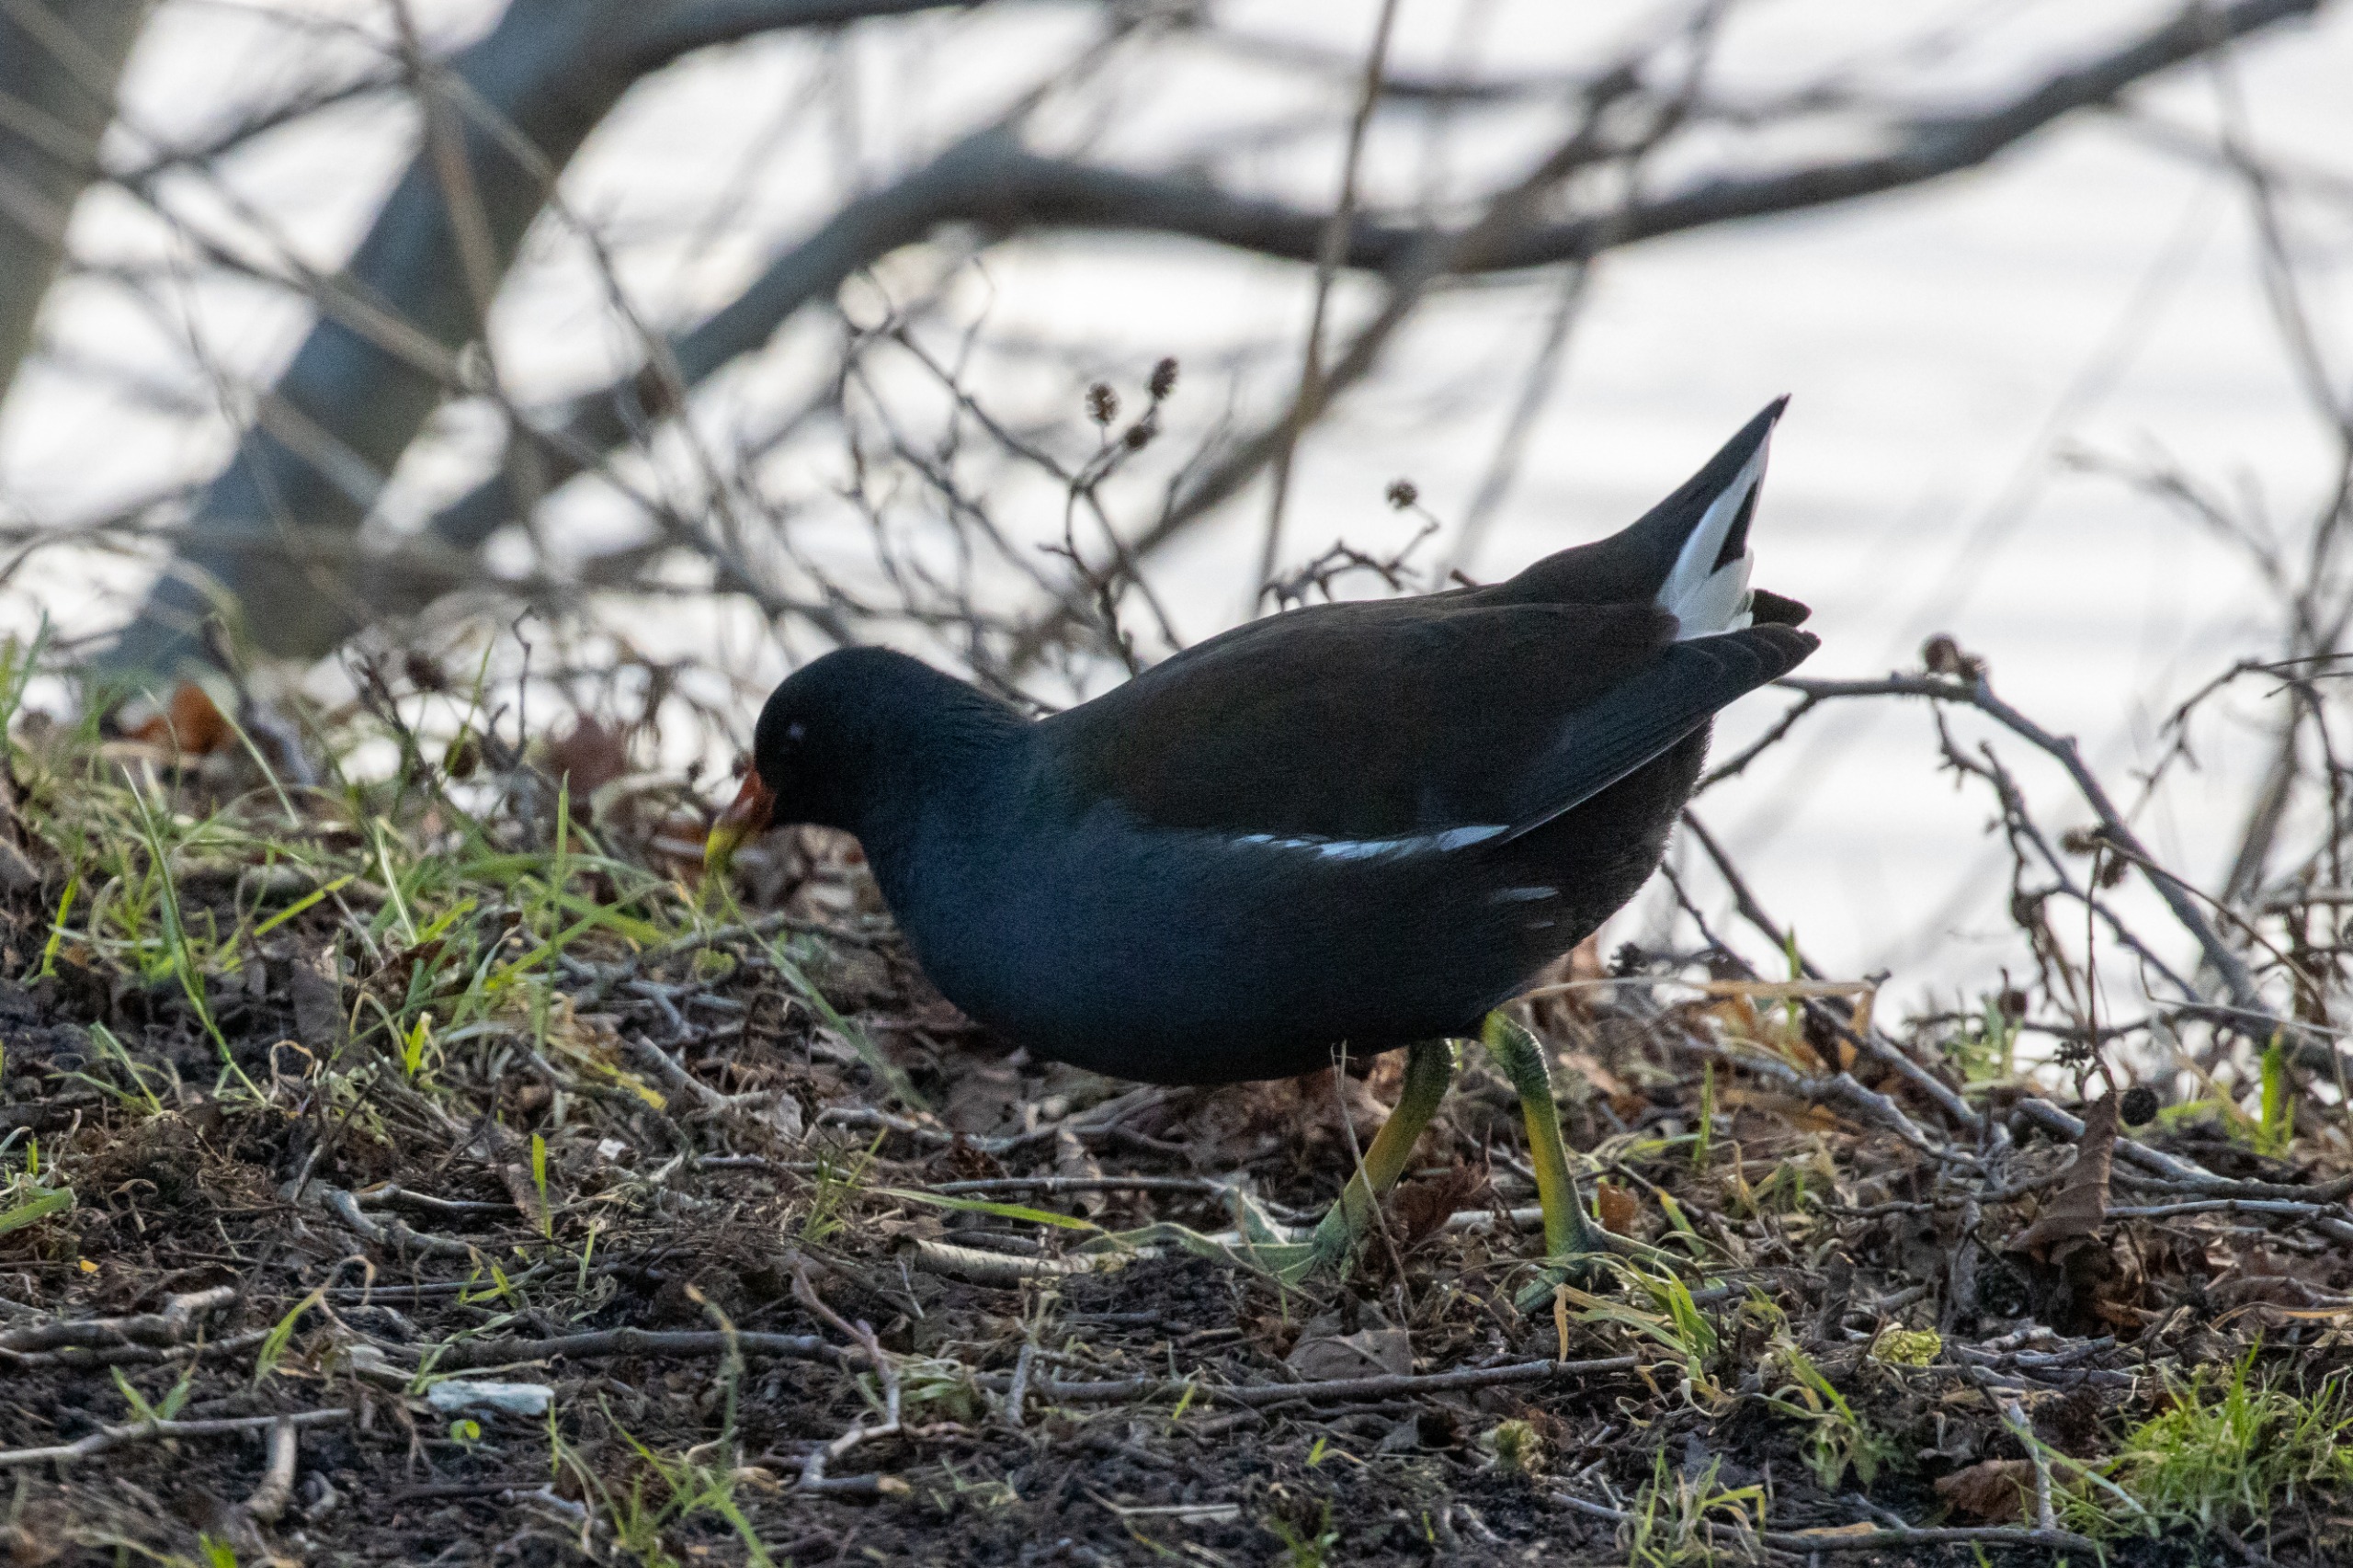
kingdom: Animalia
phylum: Chordata
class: Aves
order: Gruiformes
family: Rallidae
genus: Gallinula
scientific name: Gallinula chloropus
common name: Grønbenet rørhøne
